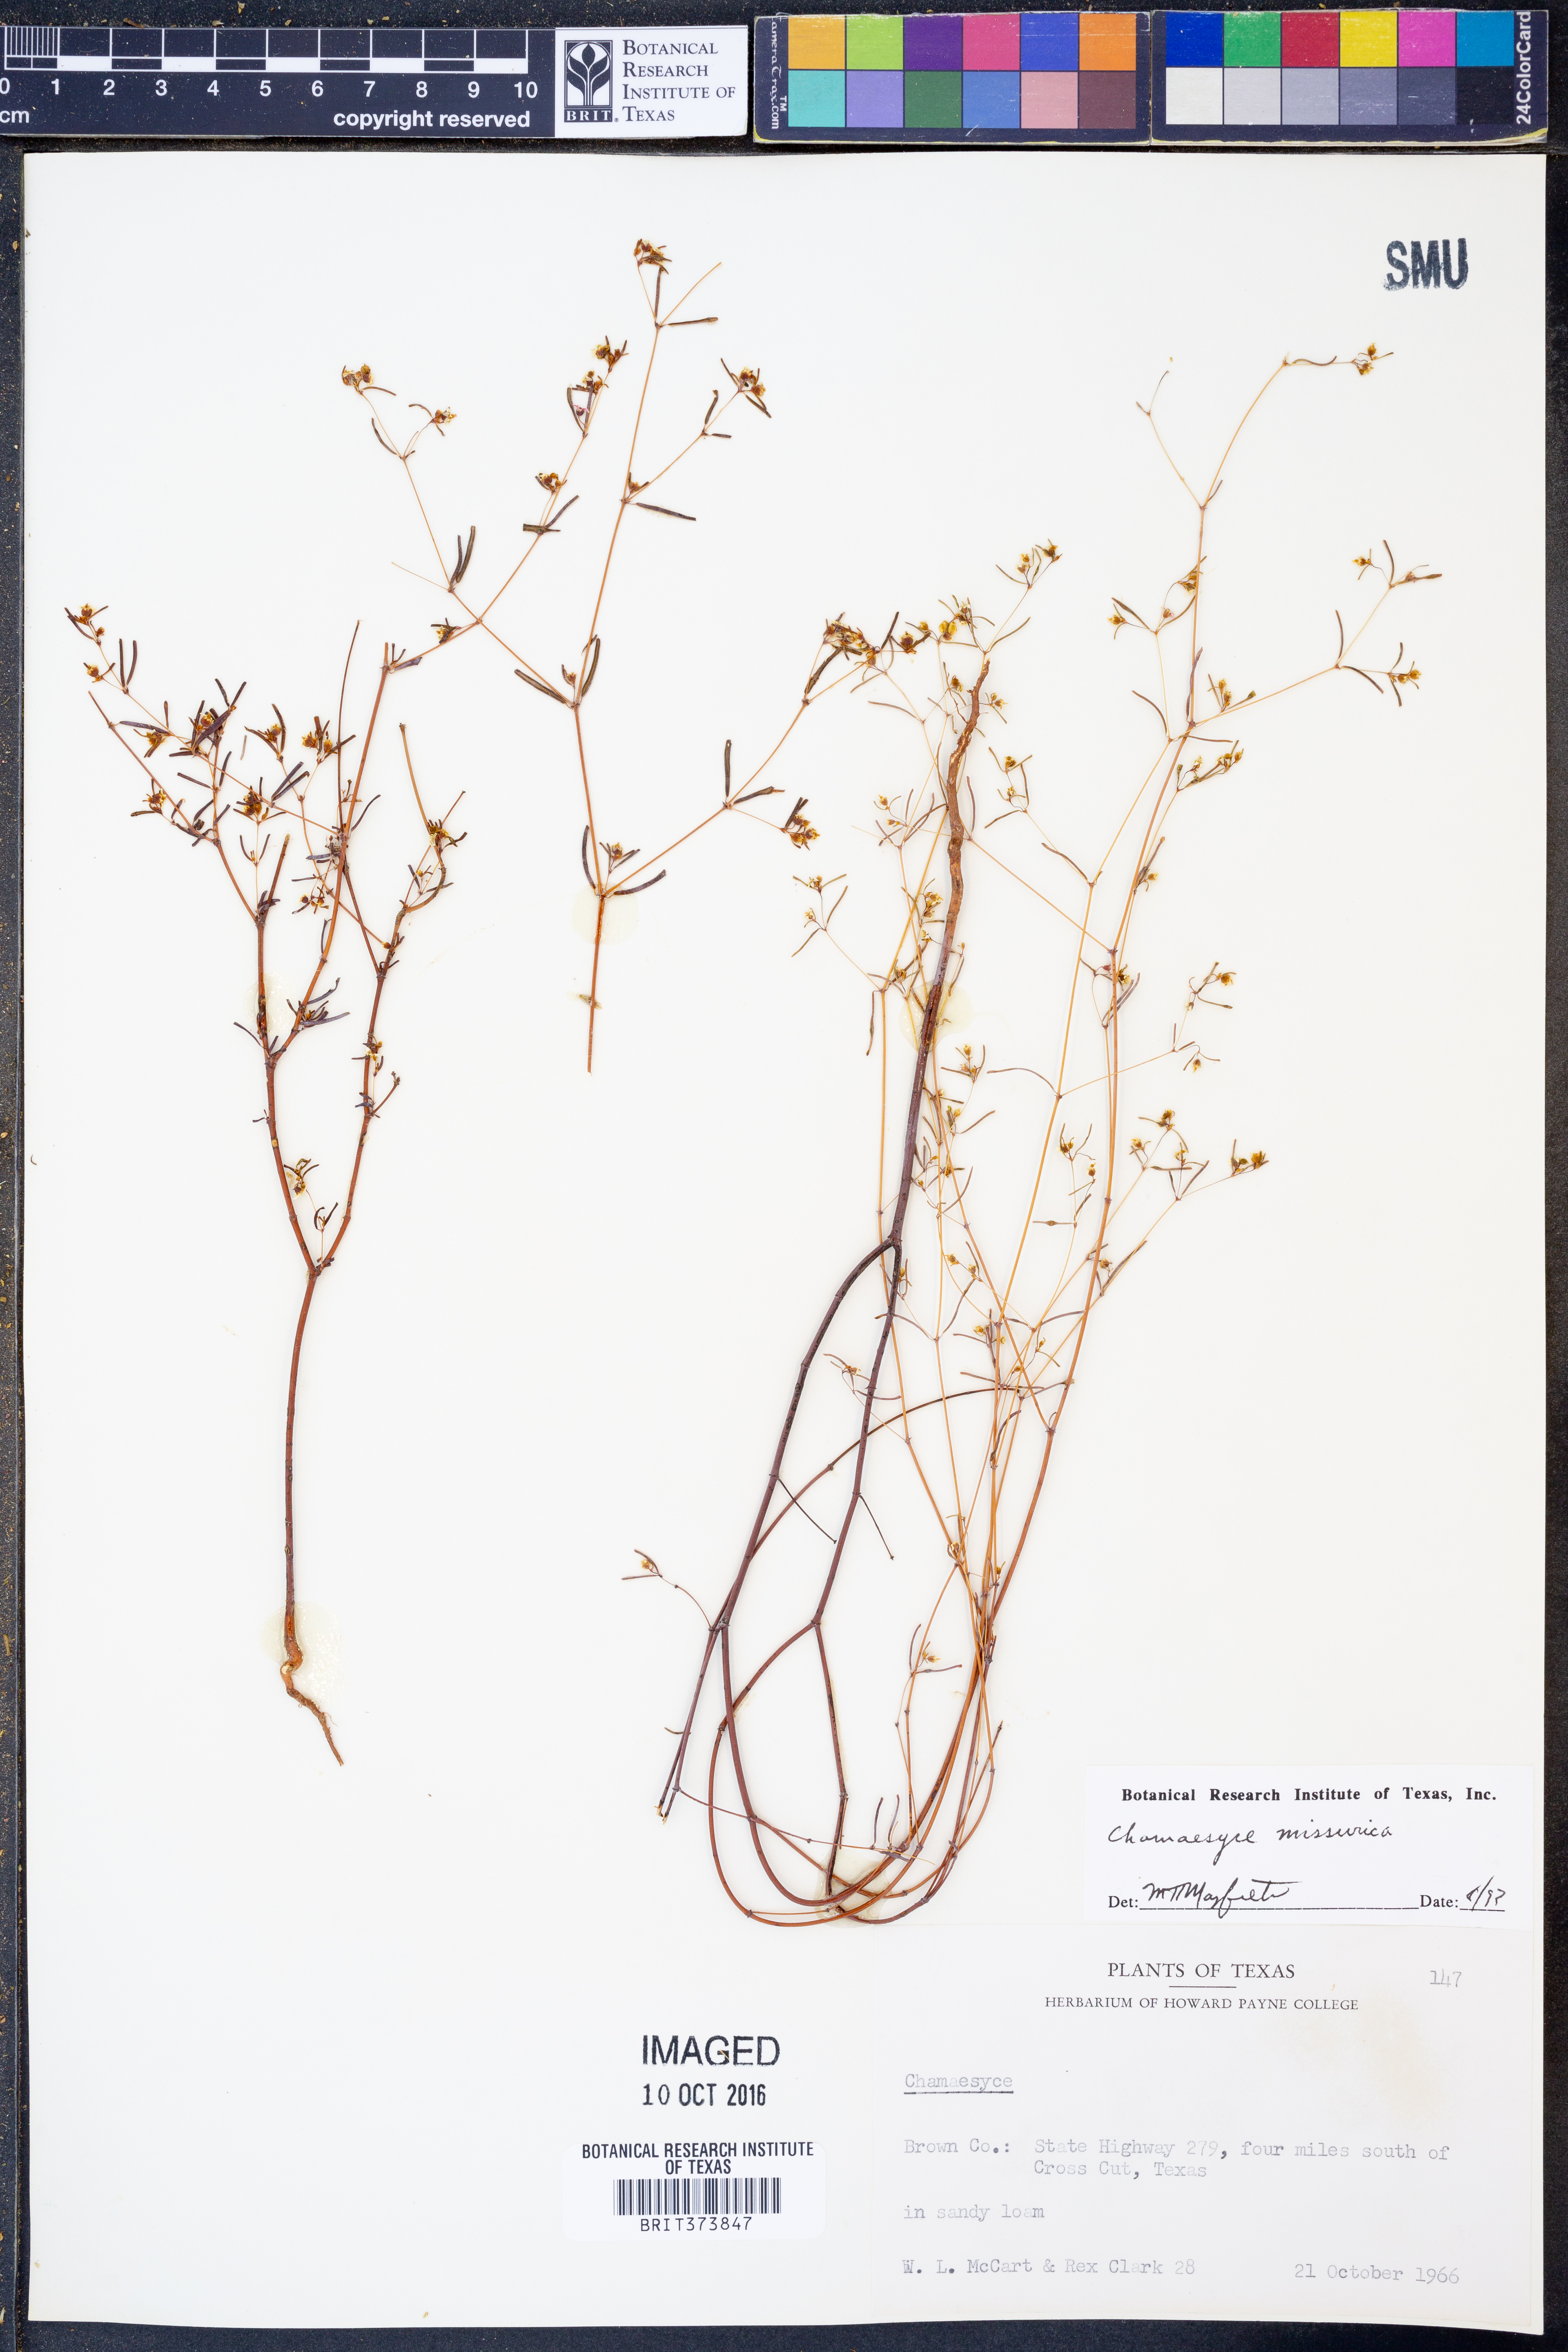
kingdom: Plantae
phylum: Tracheophyta
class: Magnoliopsida
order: Malpighiales
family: Euphorbiaceae
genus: Euphorbia
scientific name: Euphorbia missurica
